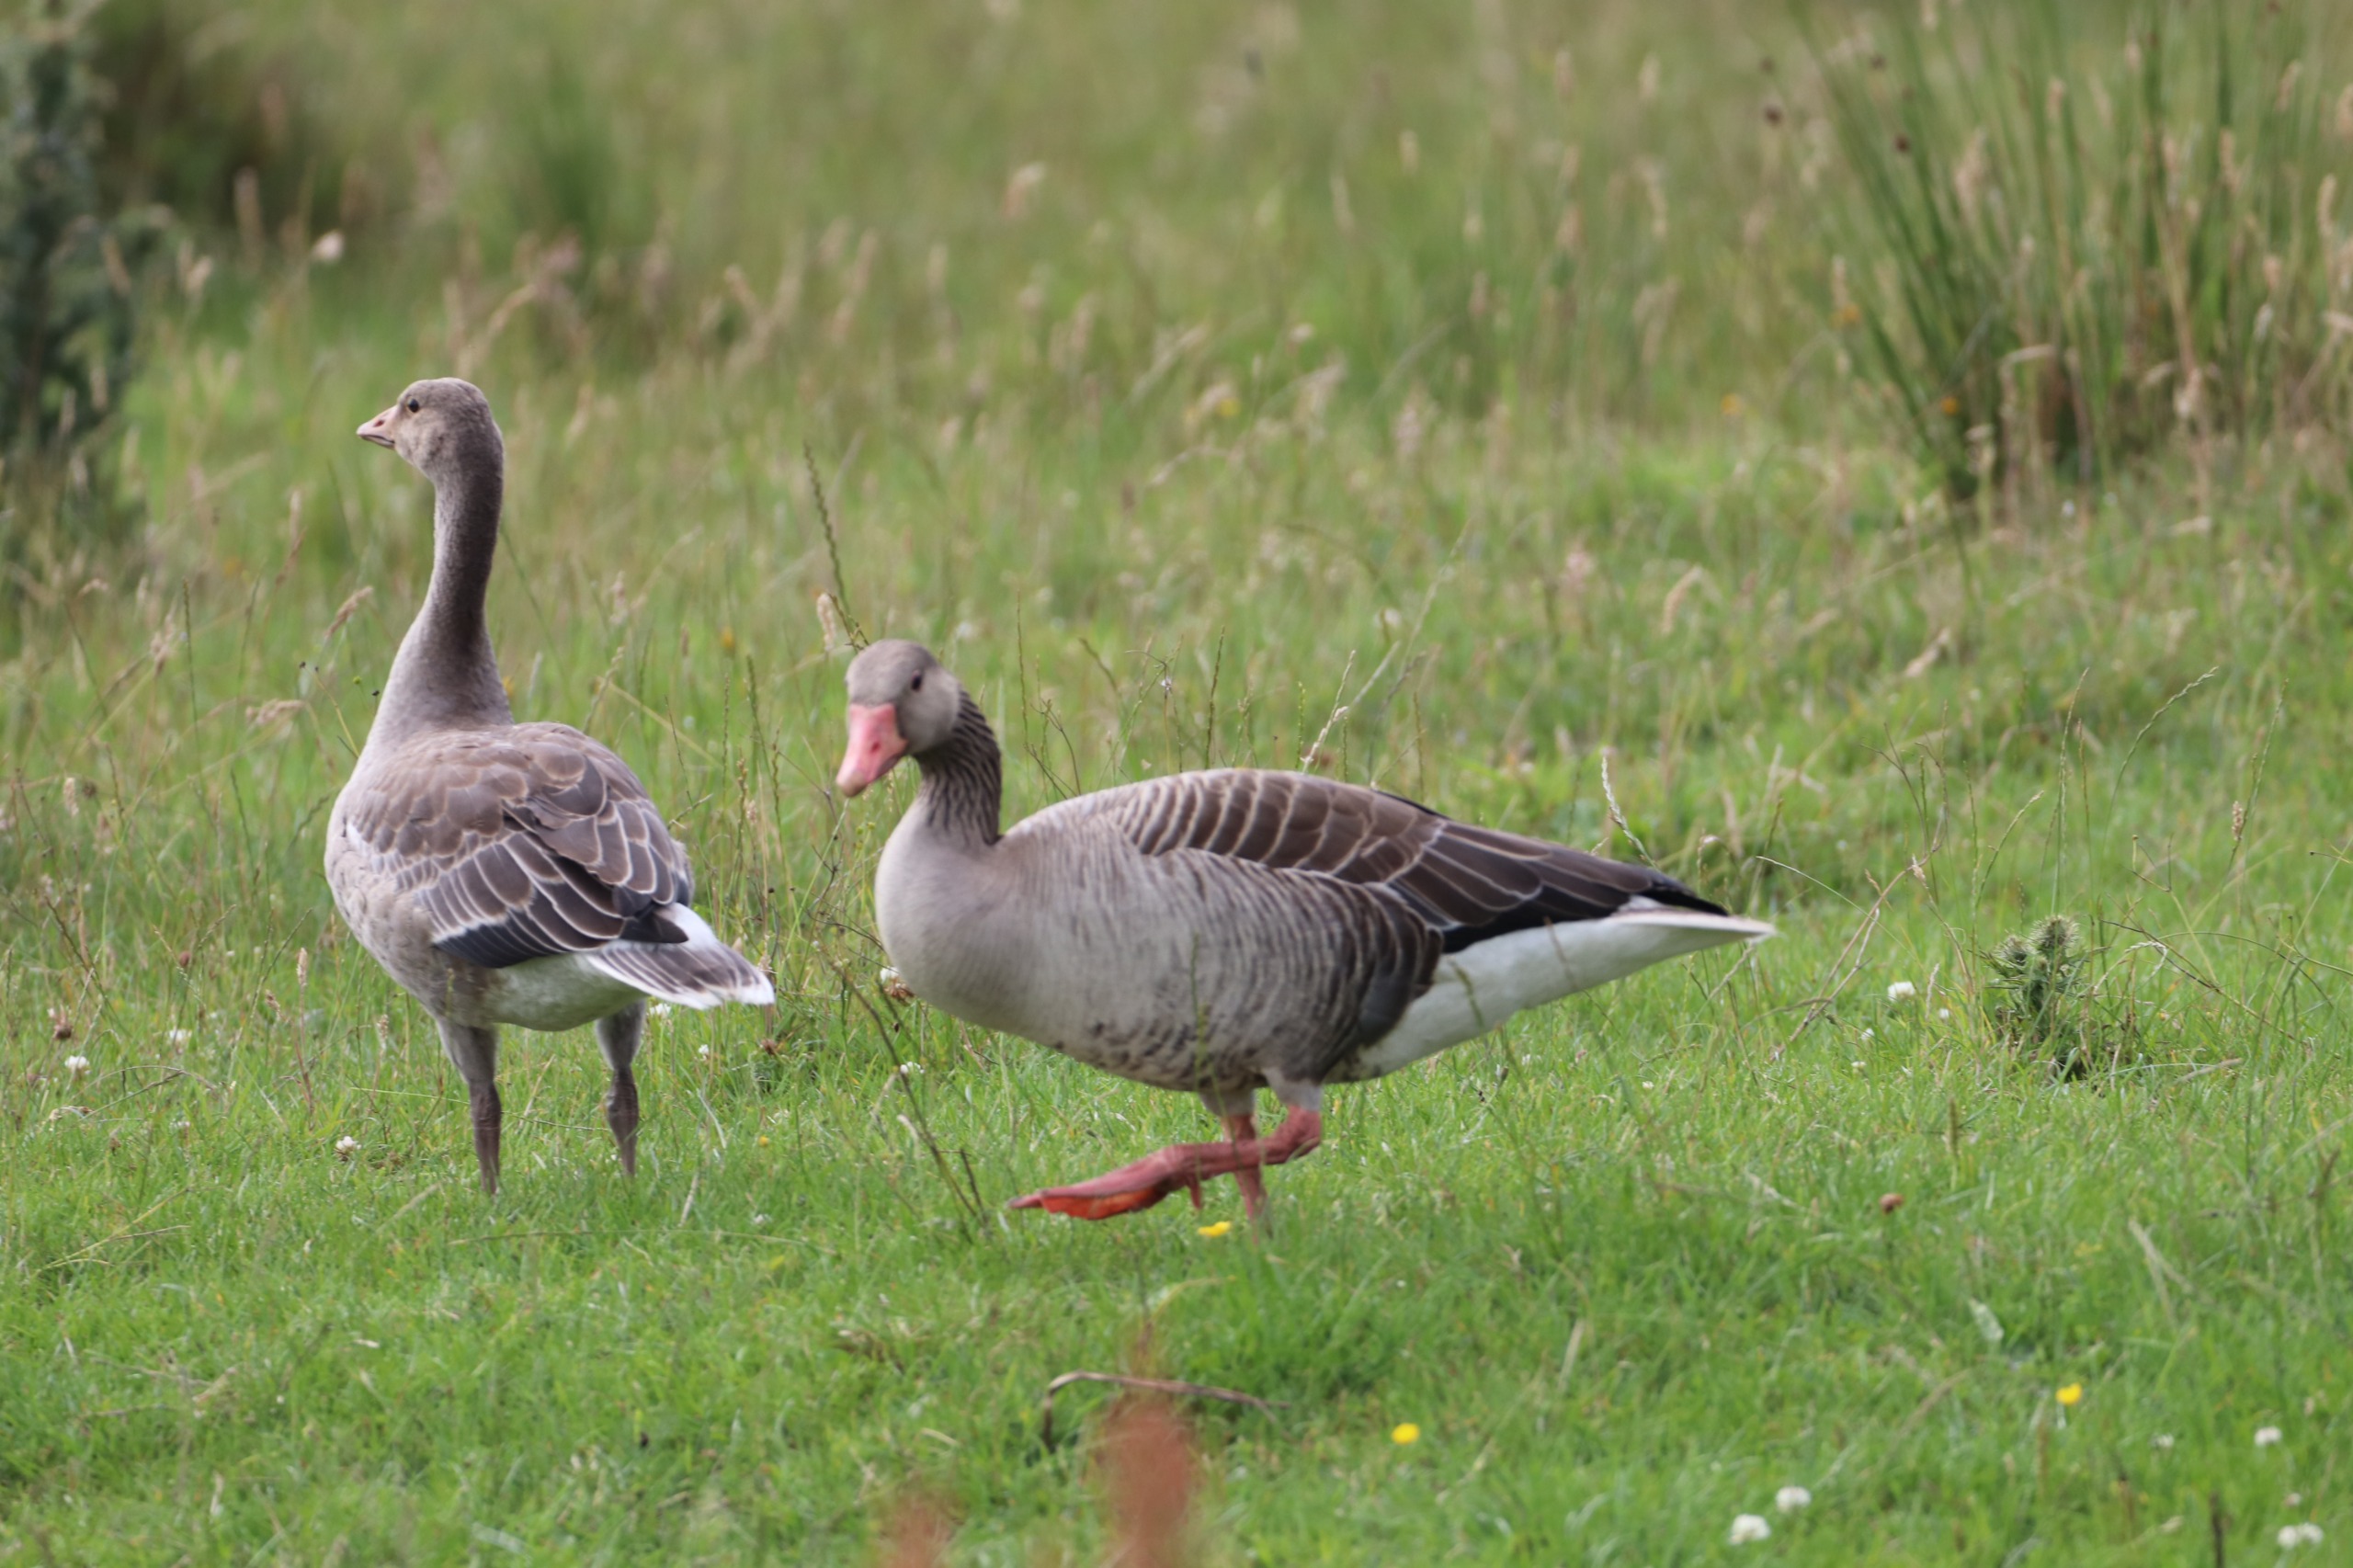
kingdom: Animalia
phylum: Chordata
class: Aves
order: Anseriformes
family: Anatidae
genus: Anser
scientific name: Anser anser
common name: Grågås
